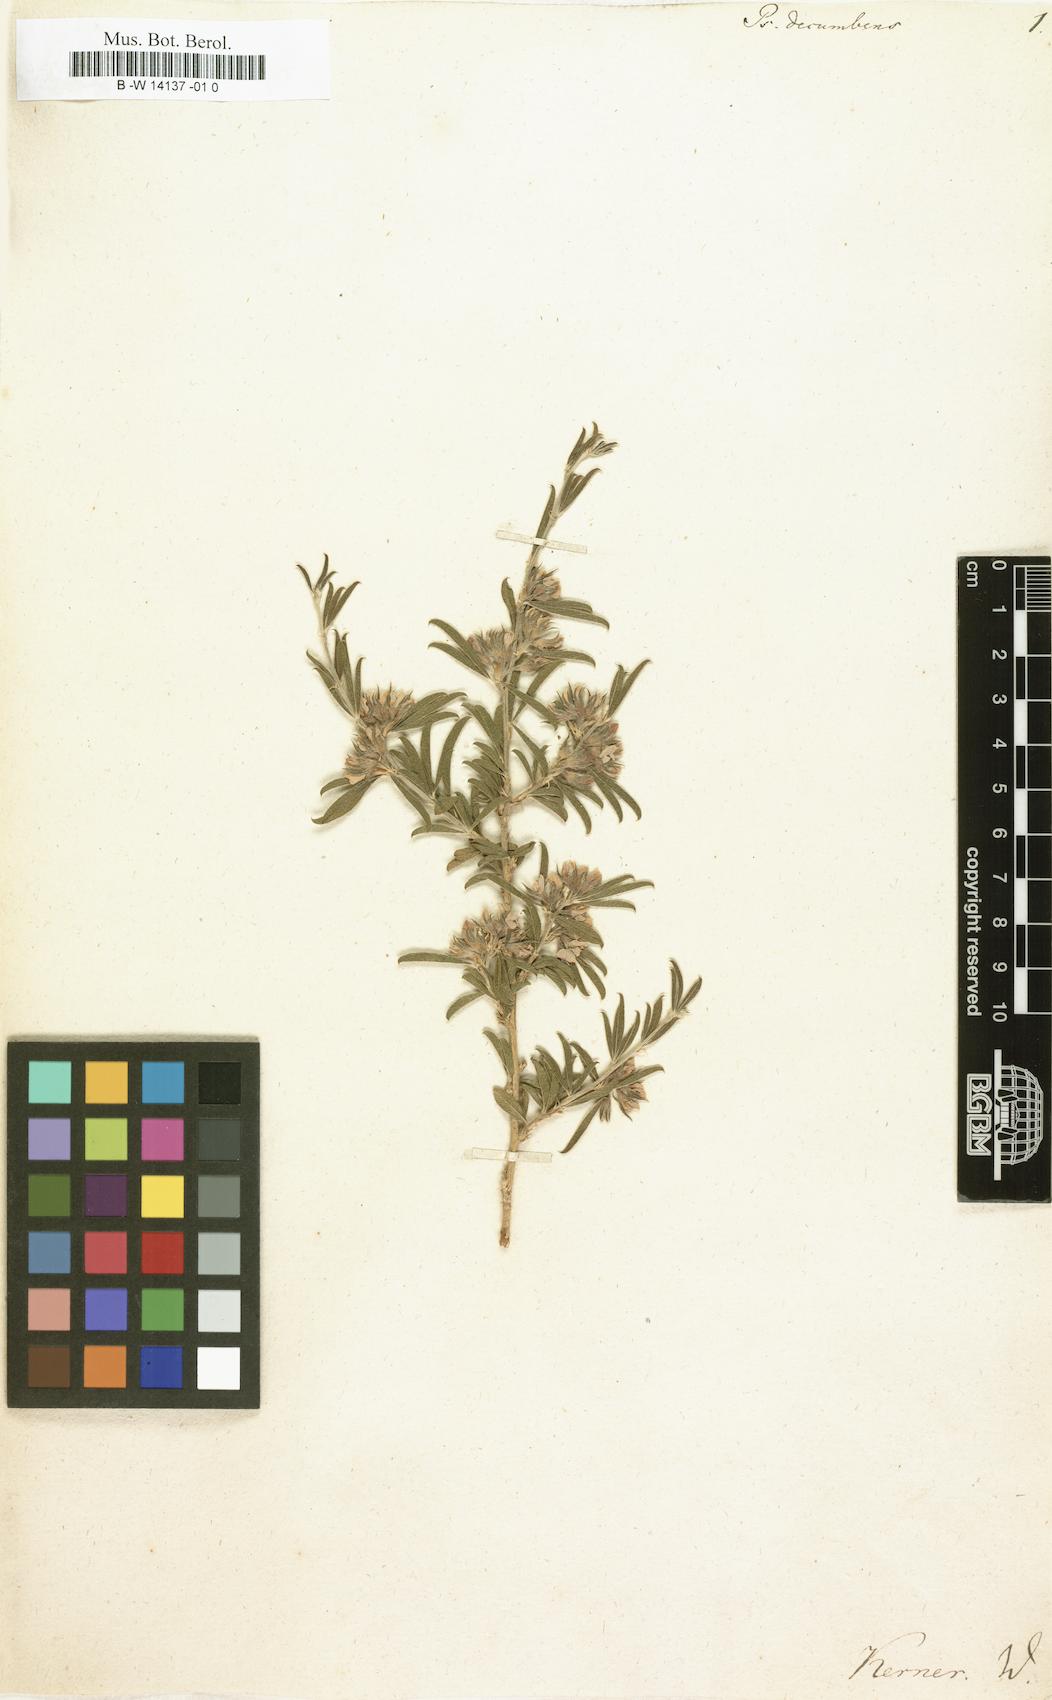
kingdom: Plantae
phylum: Tracheophyta
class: Magnoliopsida
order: Fabales
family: Fabaceae
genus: Psoralea
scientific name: Psoralea
